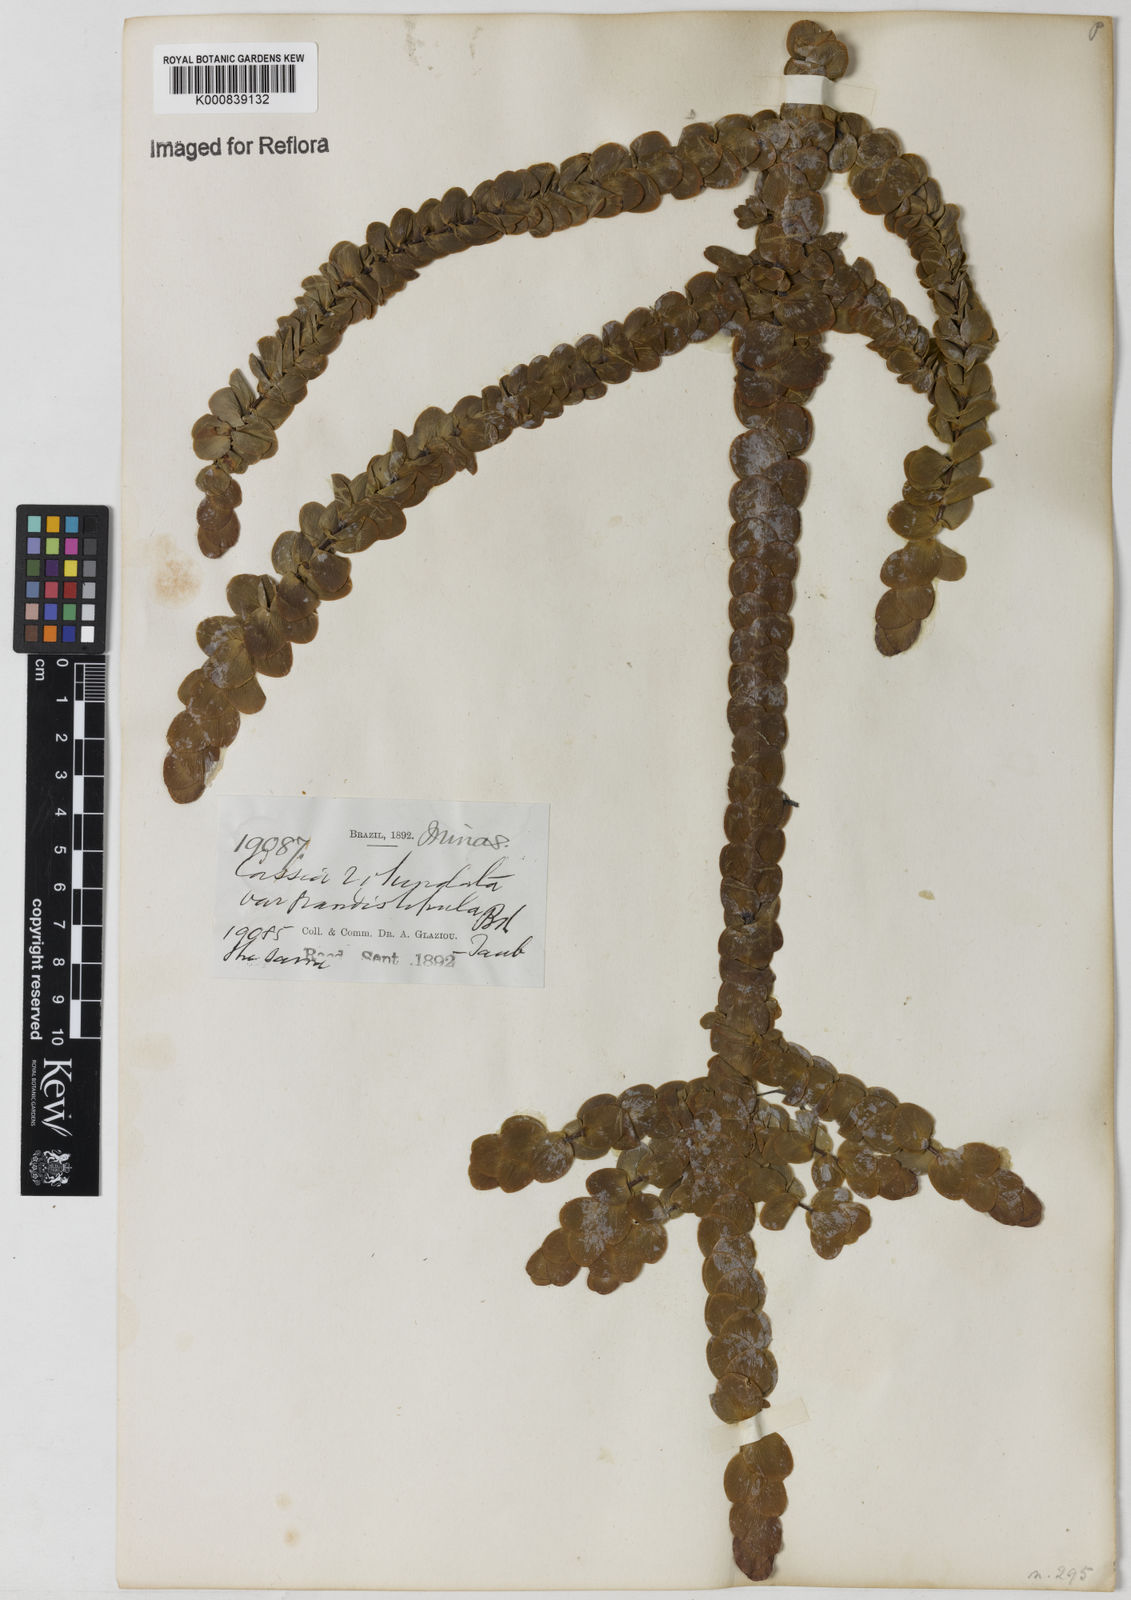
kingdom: Plantae
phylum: Tracheophyta
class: Magnoliopsida
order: Fabales
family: Fabaceae
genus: Chamaecrista
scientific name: Chamaecrista
